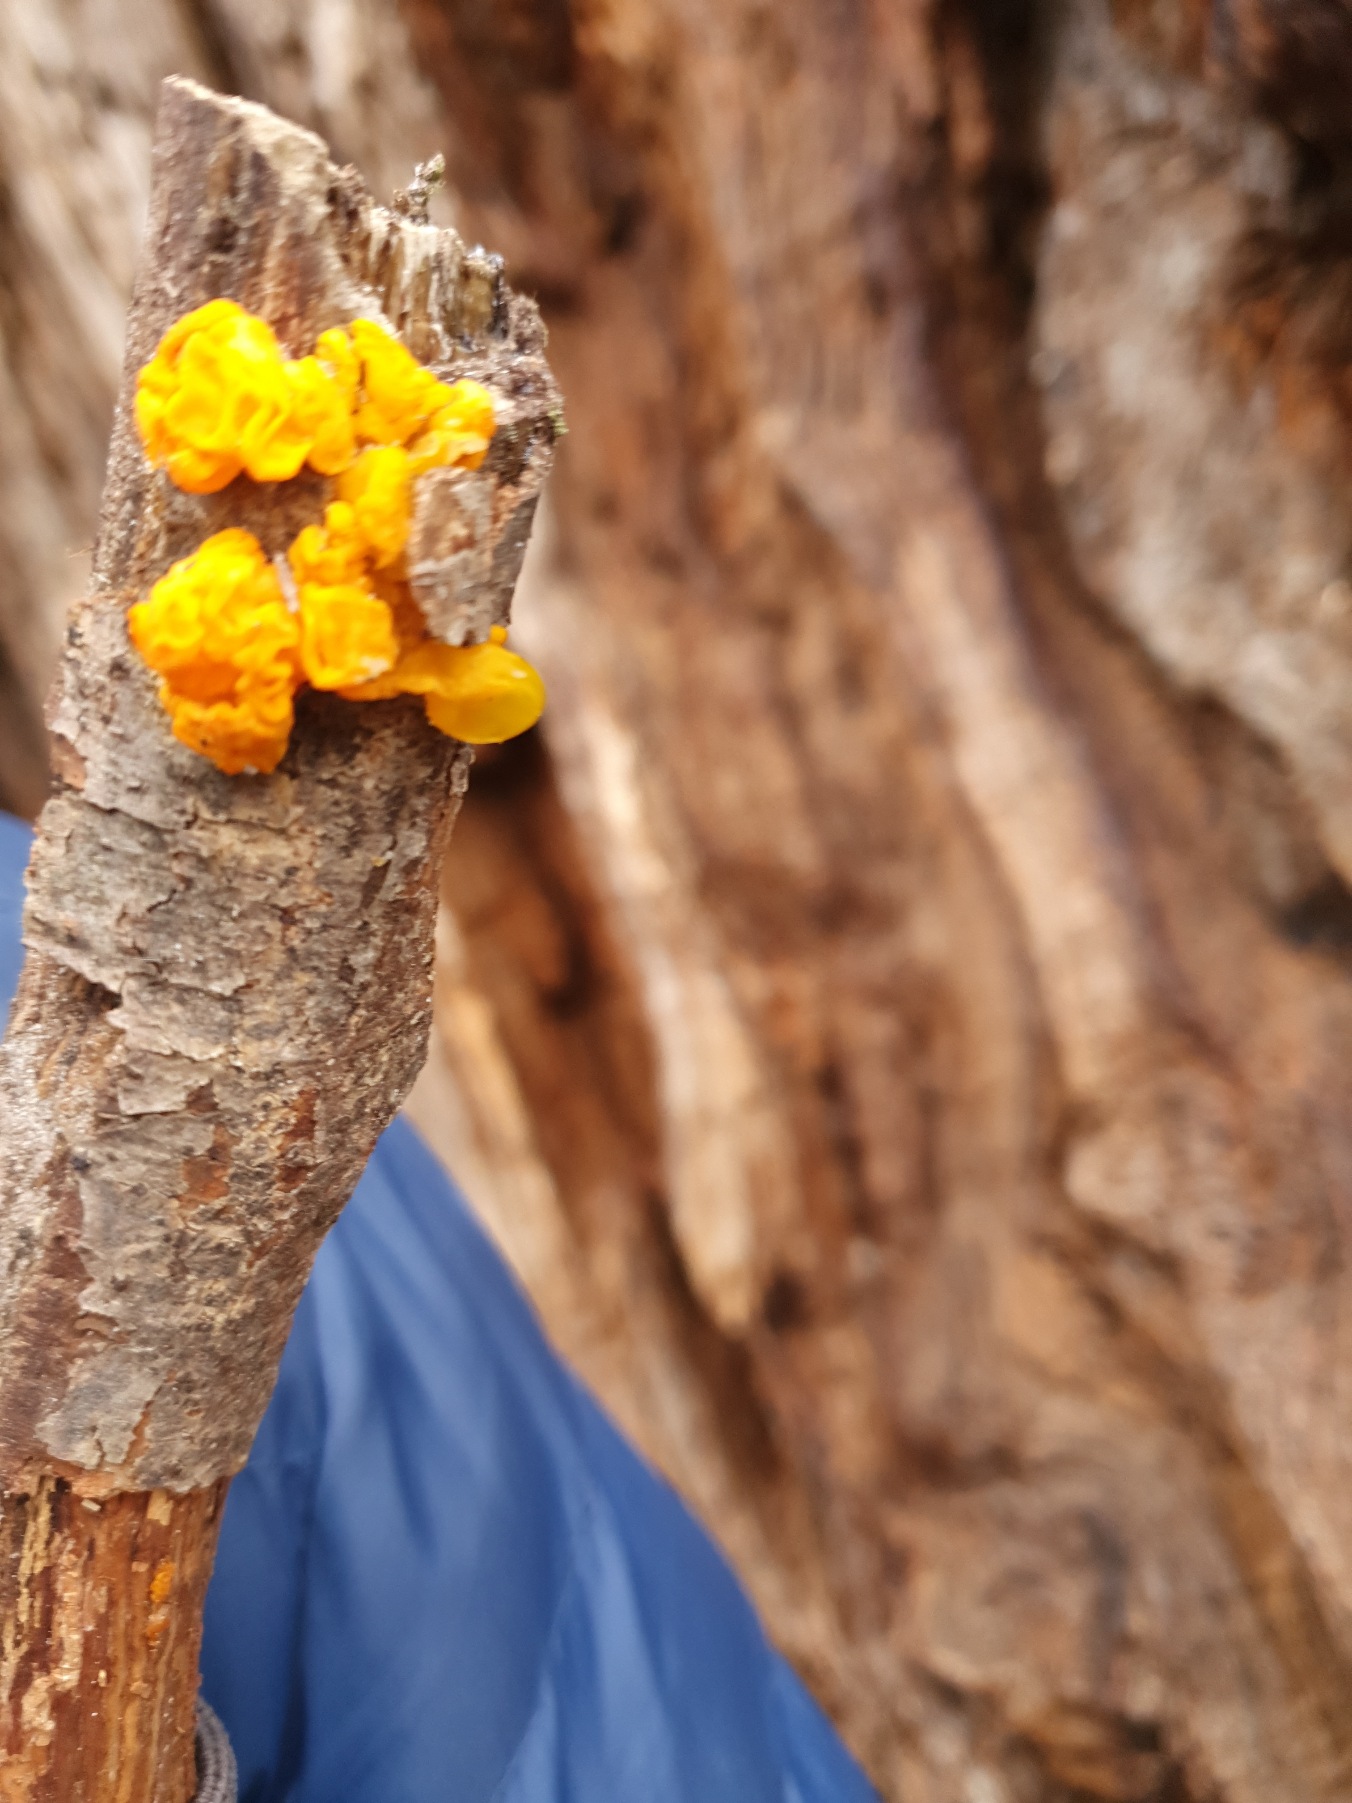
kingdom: Fungi
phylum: Basidiomycota
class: Tremellomycetes
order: Tremellales
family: Tremellaceae
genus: Tremella
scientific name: Tremella mesenterica
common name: Gul bævresvamp
